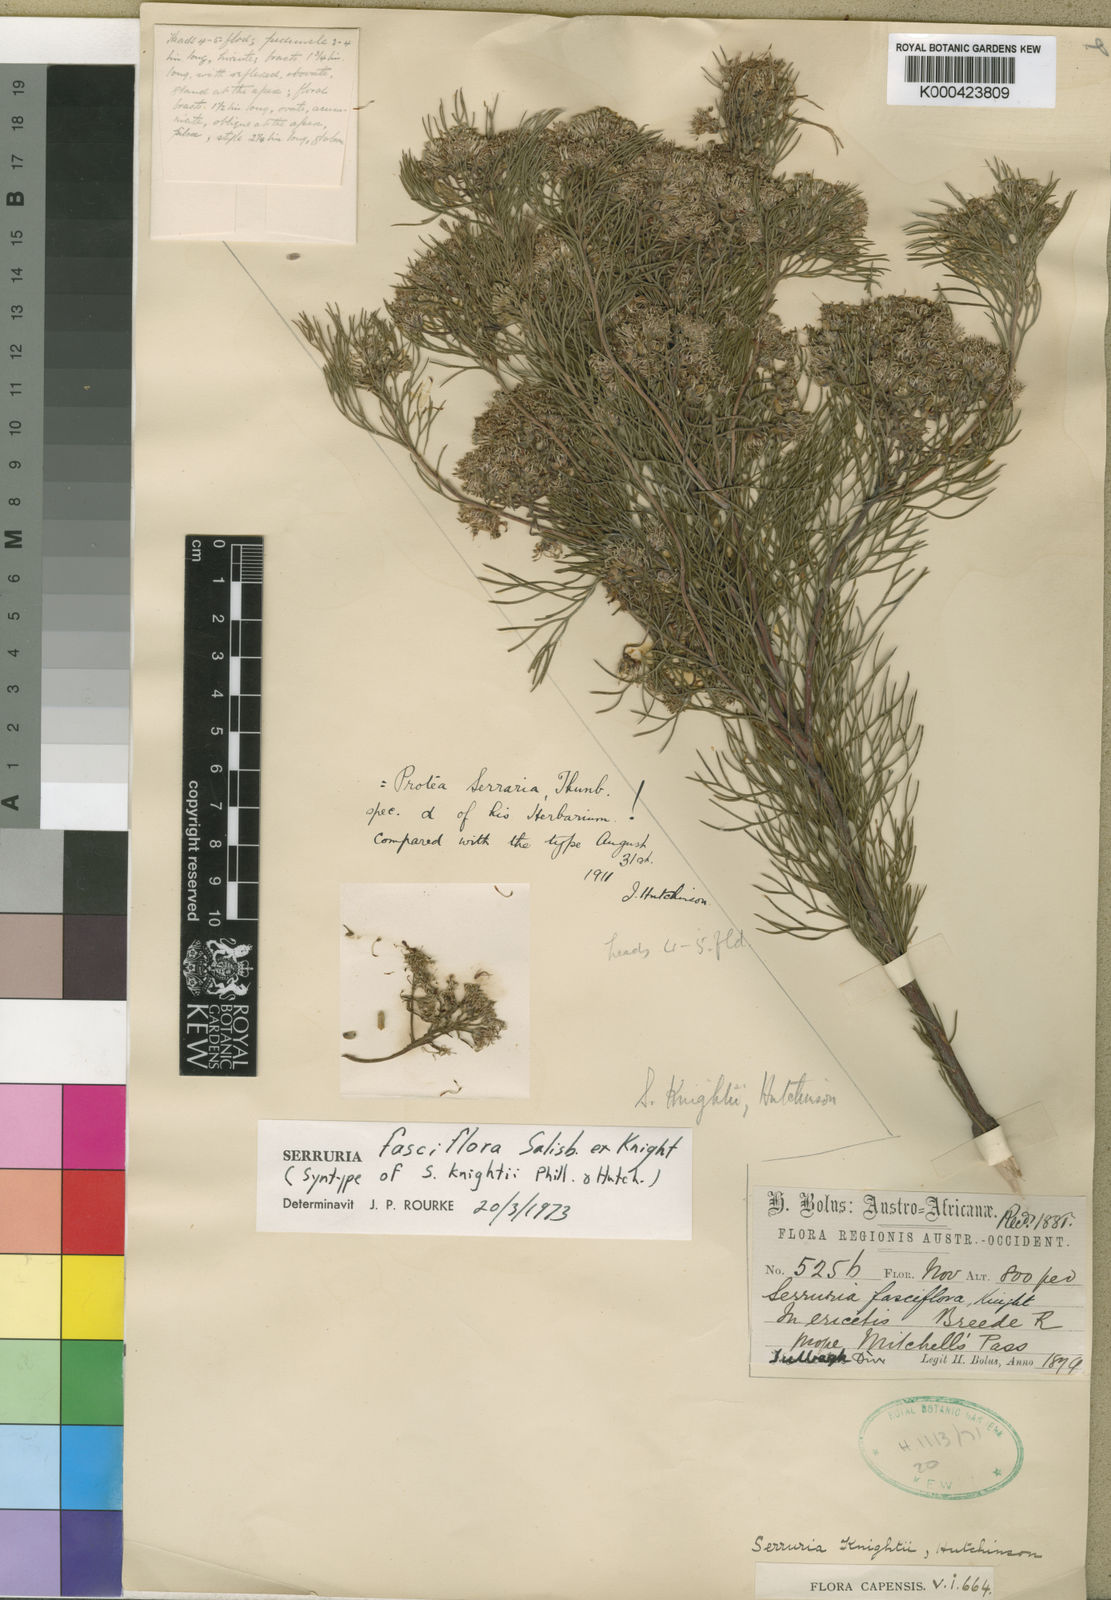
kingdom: Plantae
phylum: Tracheophyta
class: Magnoliopsida
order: Proteales
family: Proteaceae
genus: Serruria
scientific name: Serruria fasciflora
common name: Common pin spiderhead
